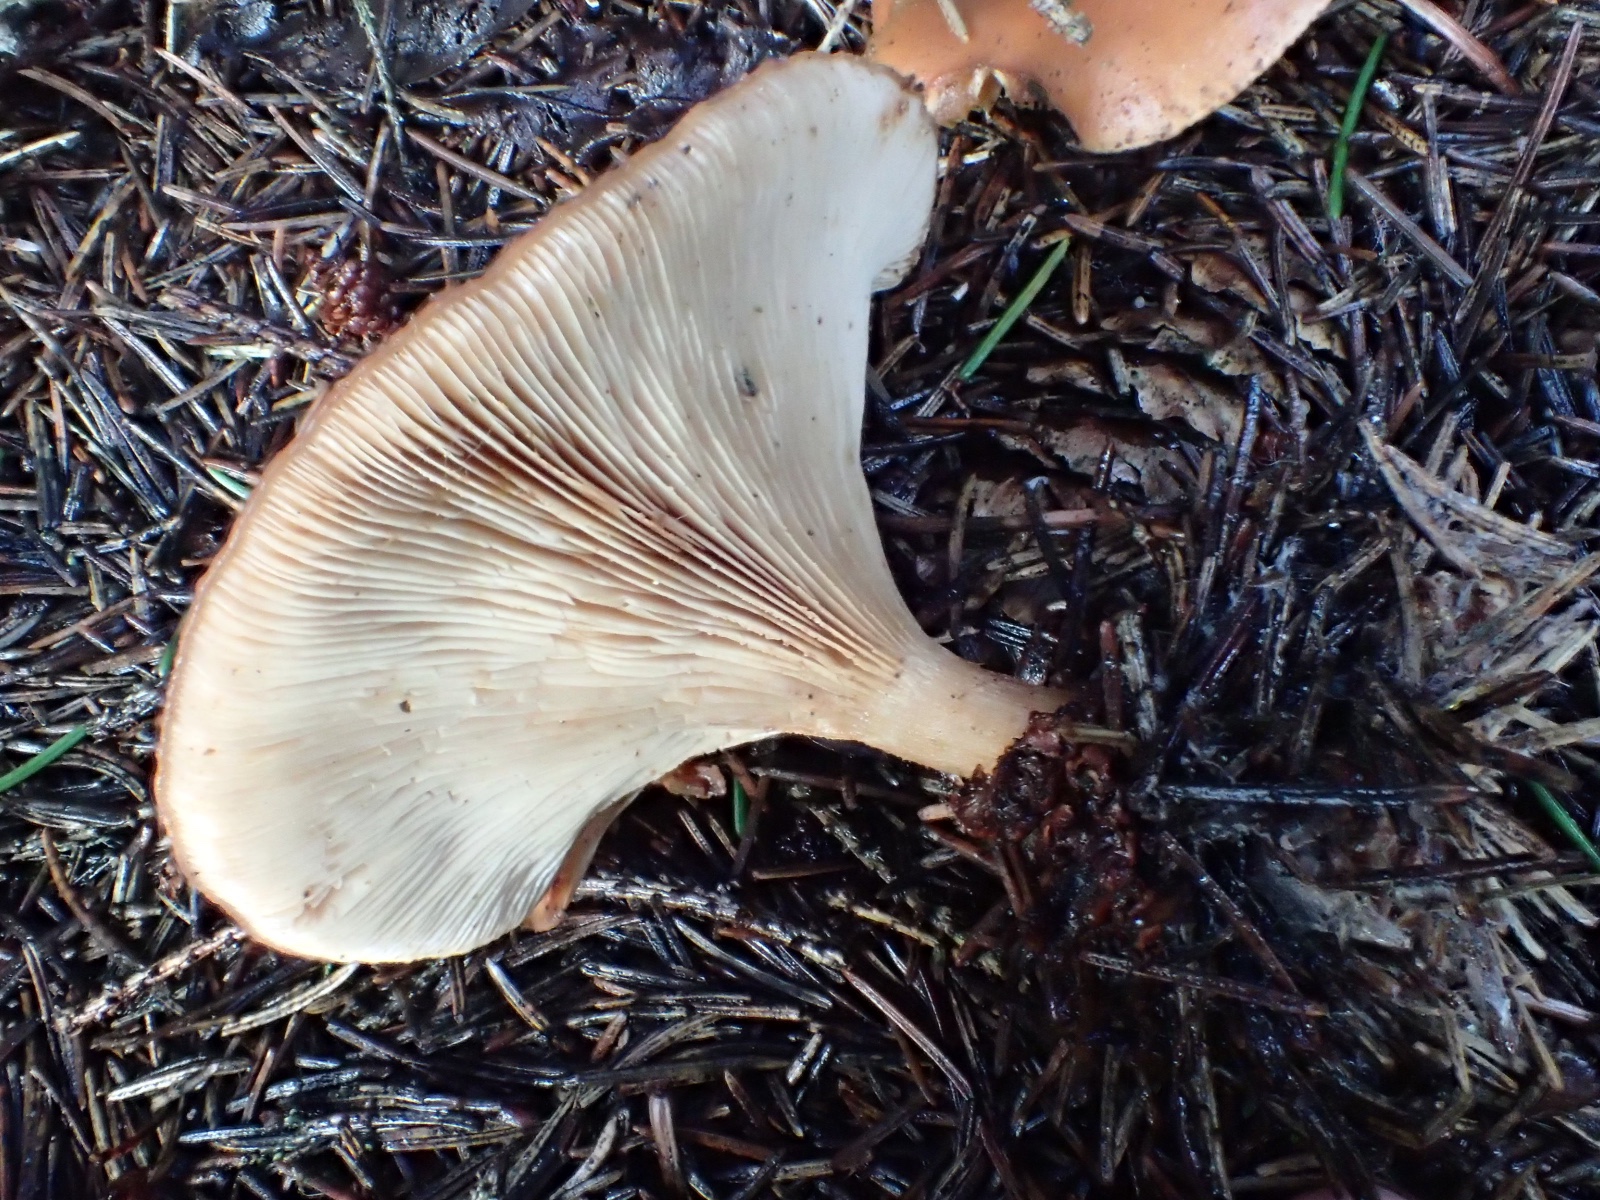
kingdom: Fungi
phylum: Basidiomycota
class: Agaricomycetes
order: Agaricales
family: Tricholomataceae
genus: Paralepista
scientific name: Paralepista flaccida
